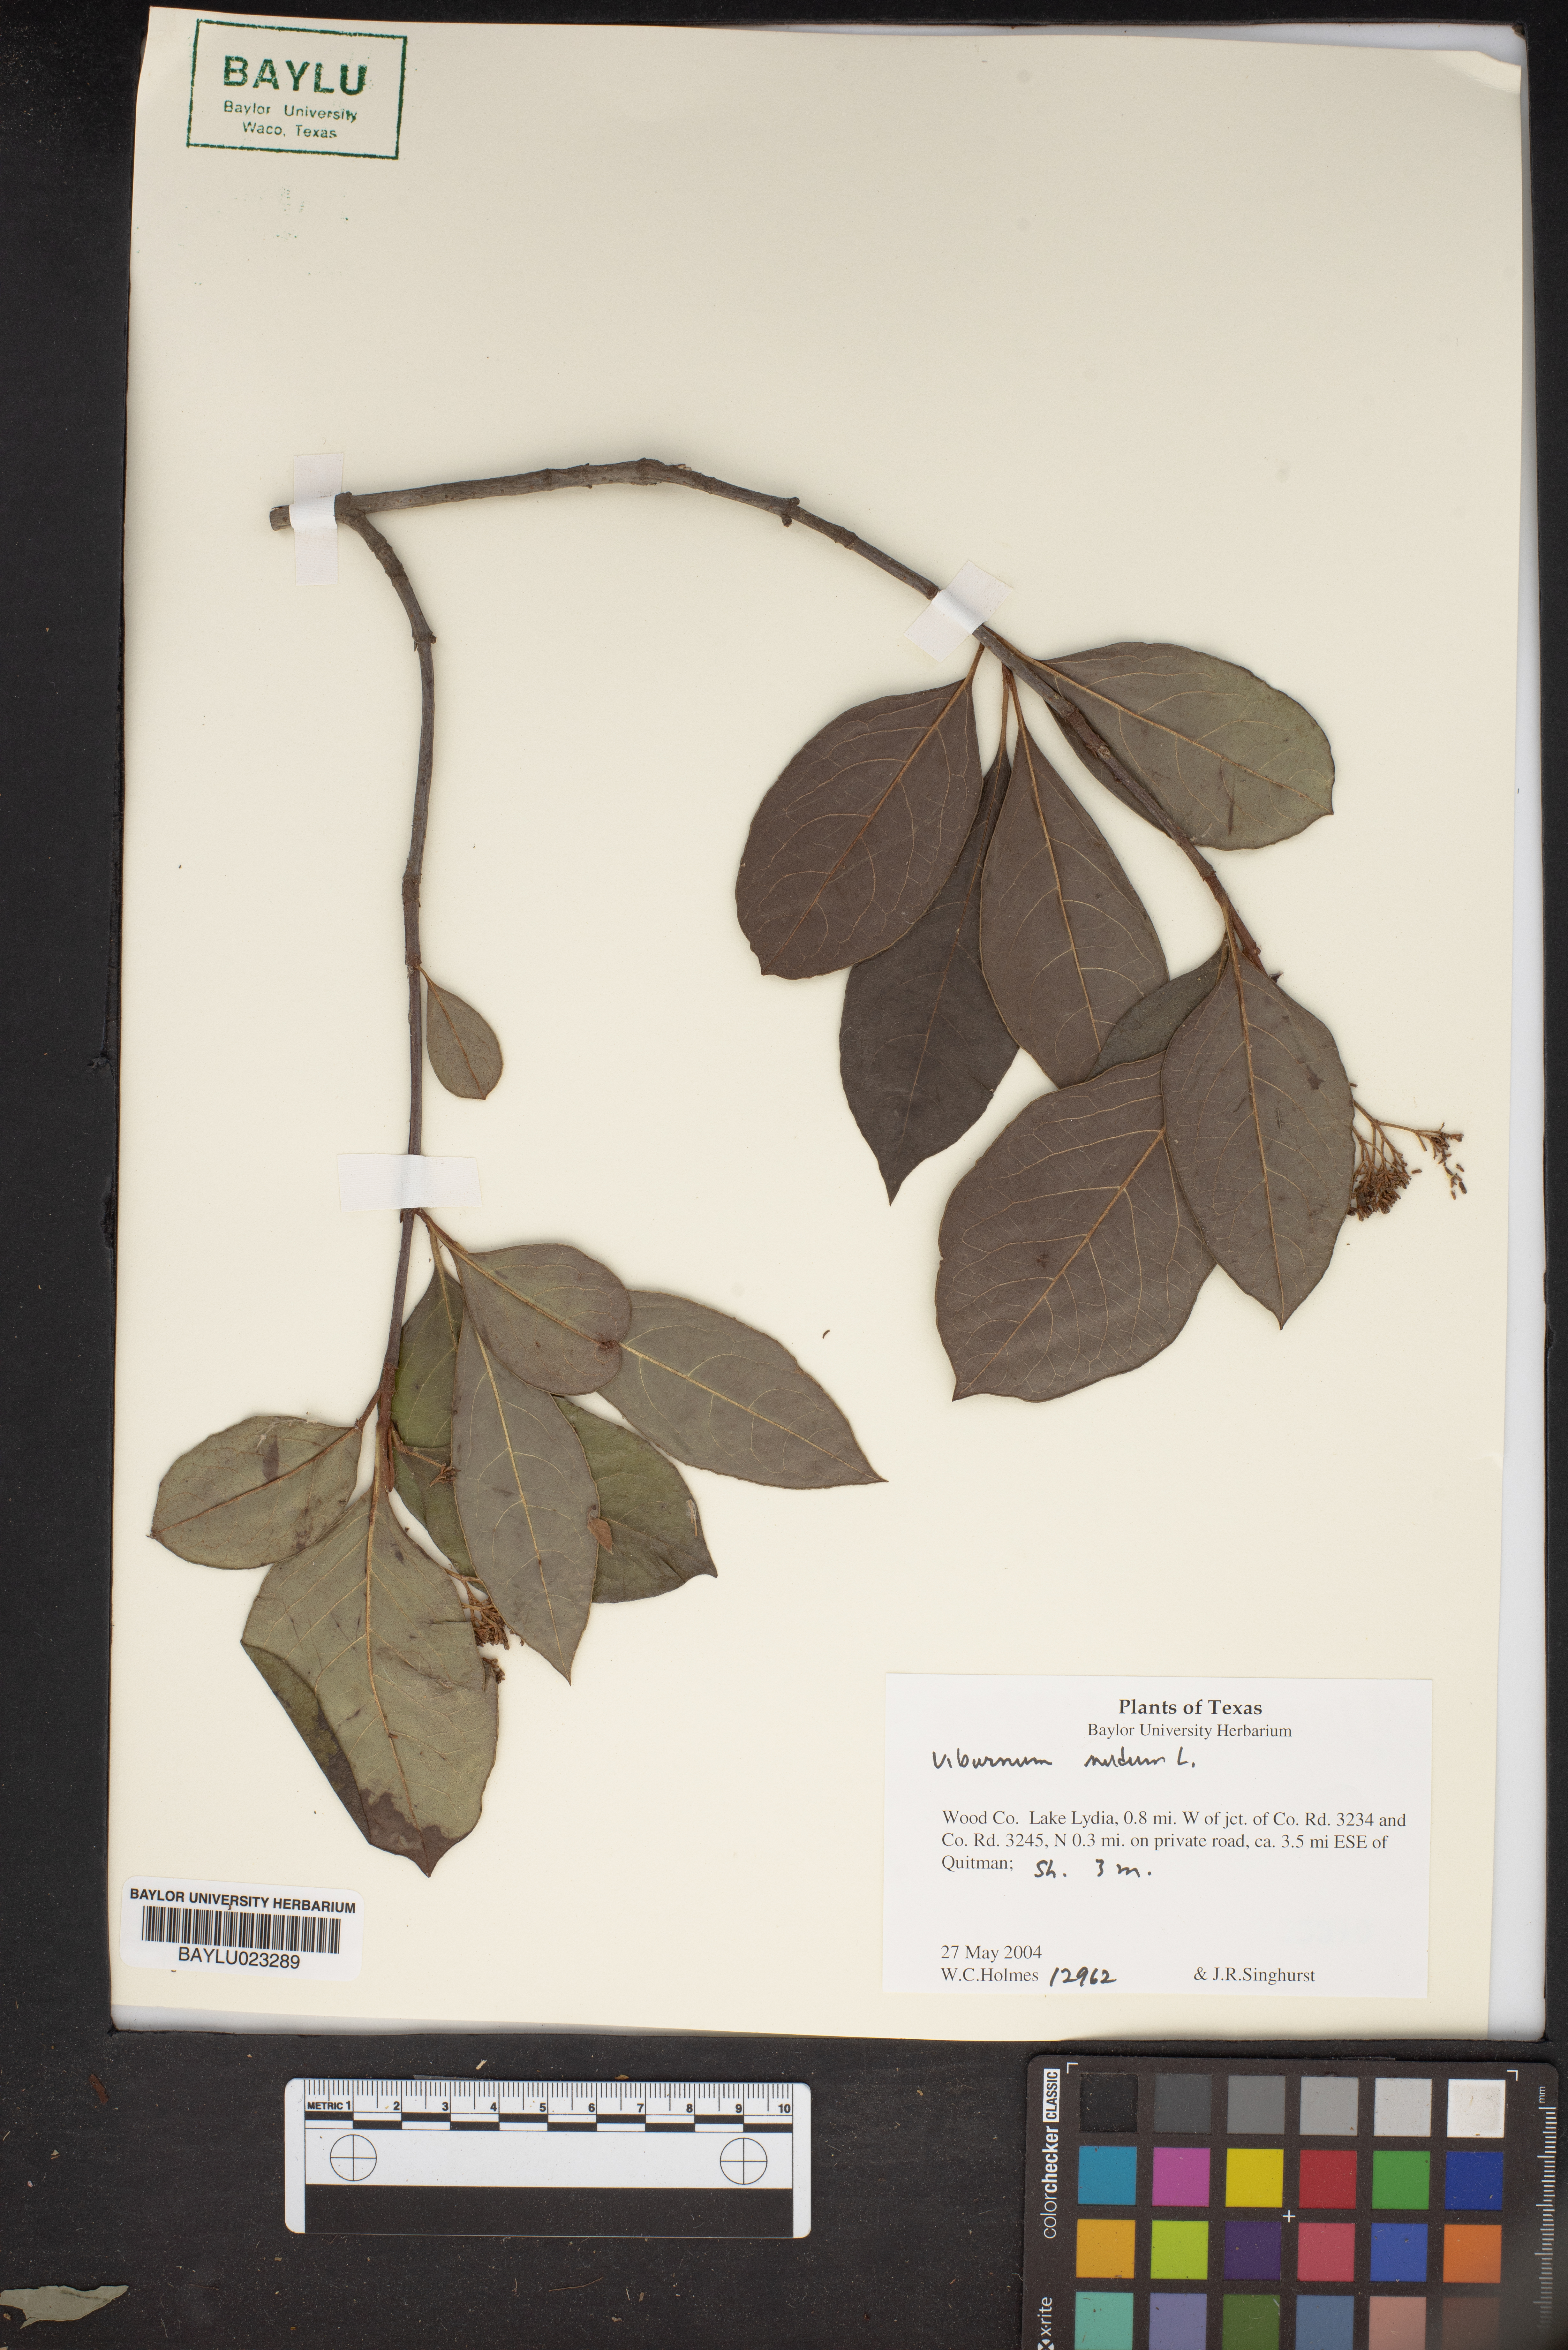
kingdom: Plantae
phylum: Tracheophyta
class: Magnoliopsida
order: Dipsacales
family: Viburnaceae
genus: Viburnum
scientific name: Viburnum nudum
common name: Possum haw
